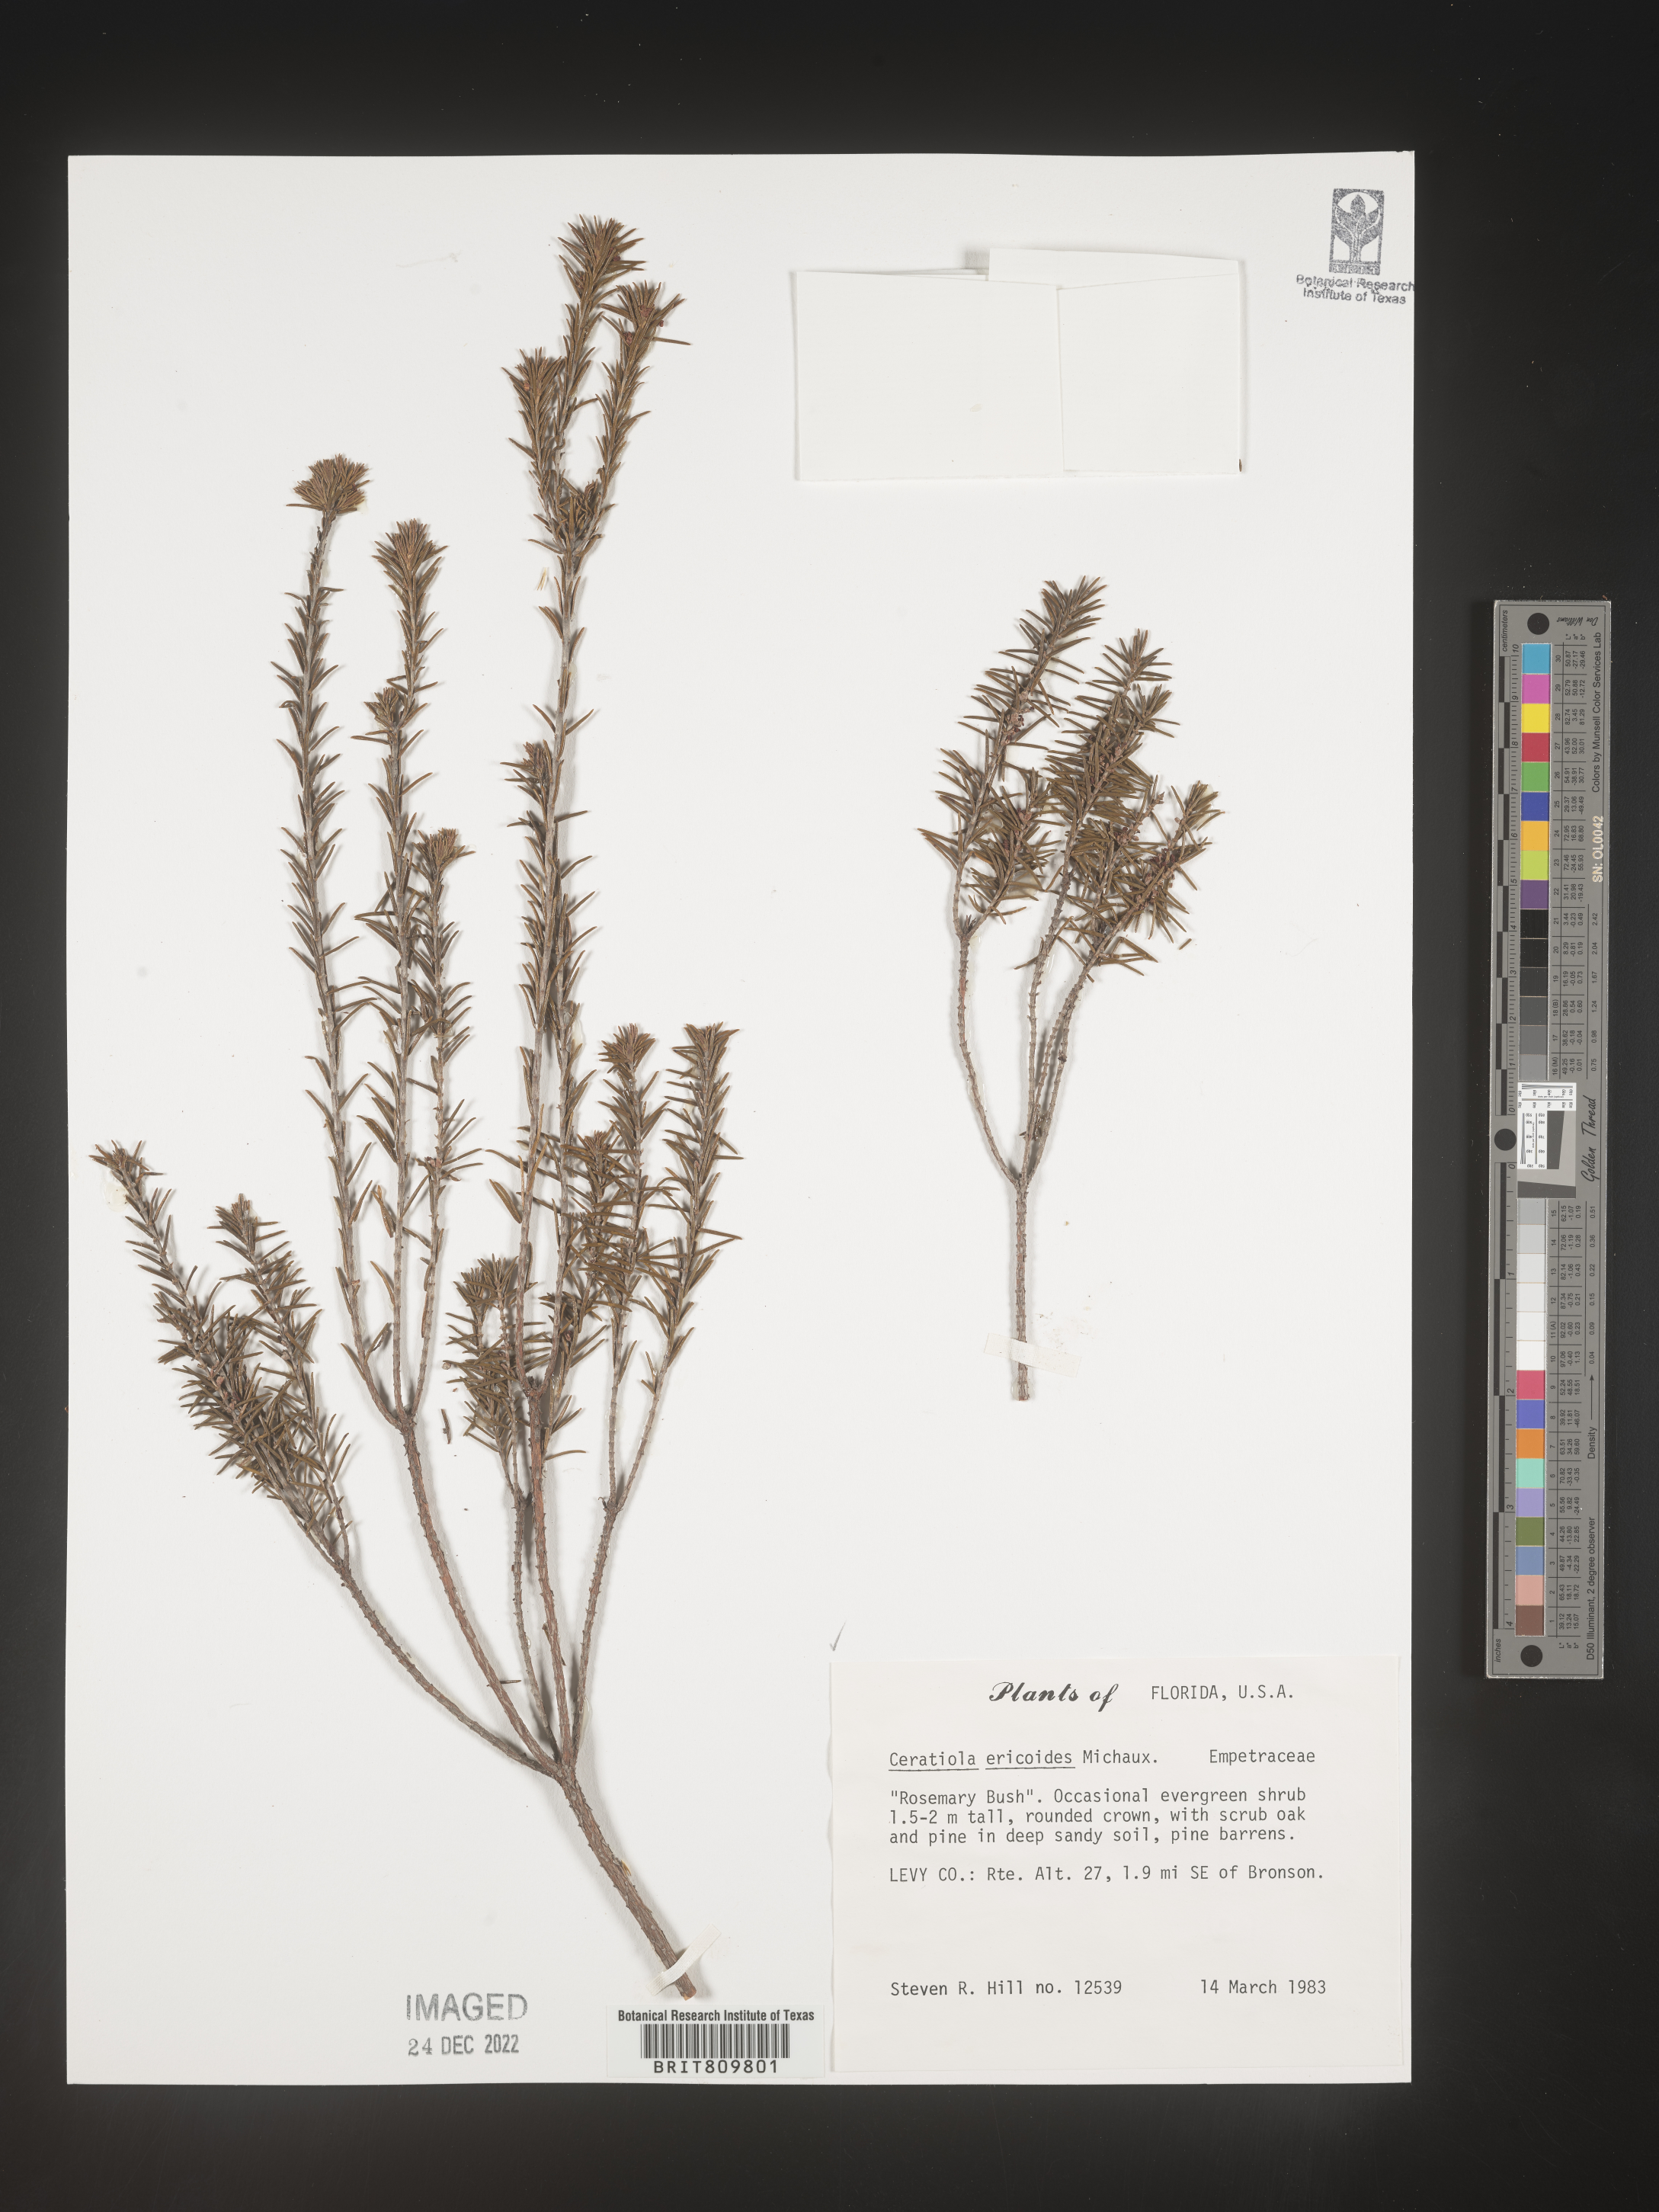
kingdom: Plantae
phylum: Tracheophyta
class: Magnoliopsida
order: Ericales
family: Ericaceae
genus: Ceratiola
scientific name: Ceratiola ericoides
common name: Sandhill-rosemary
